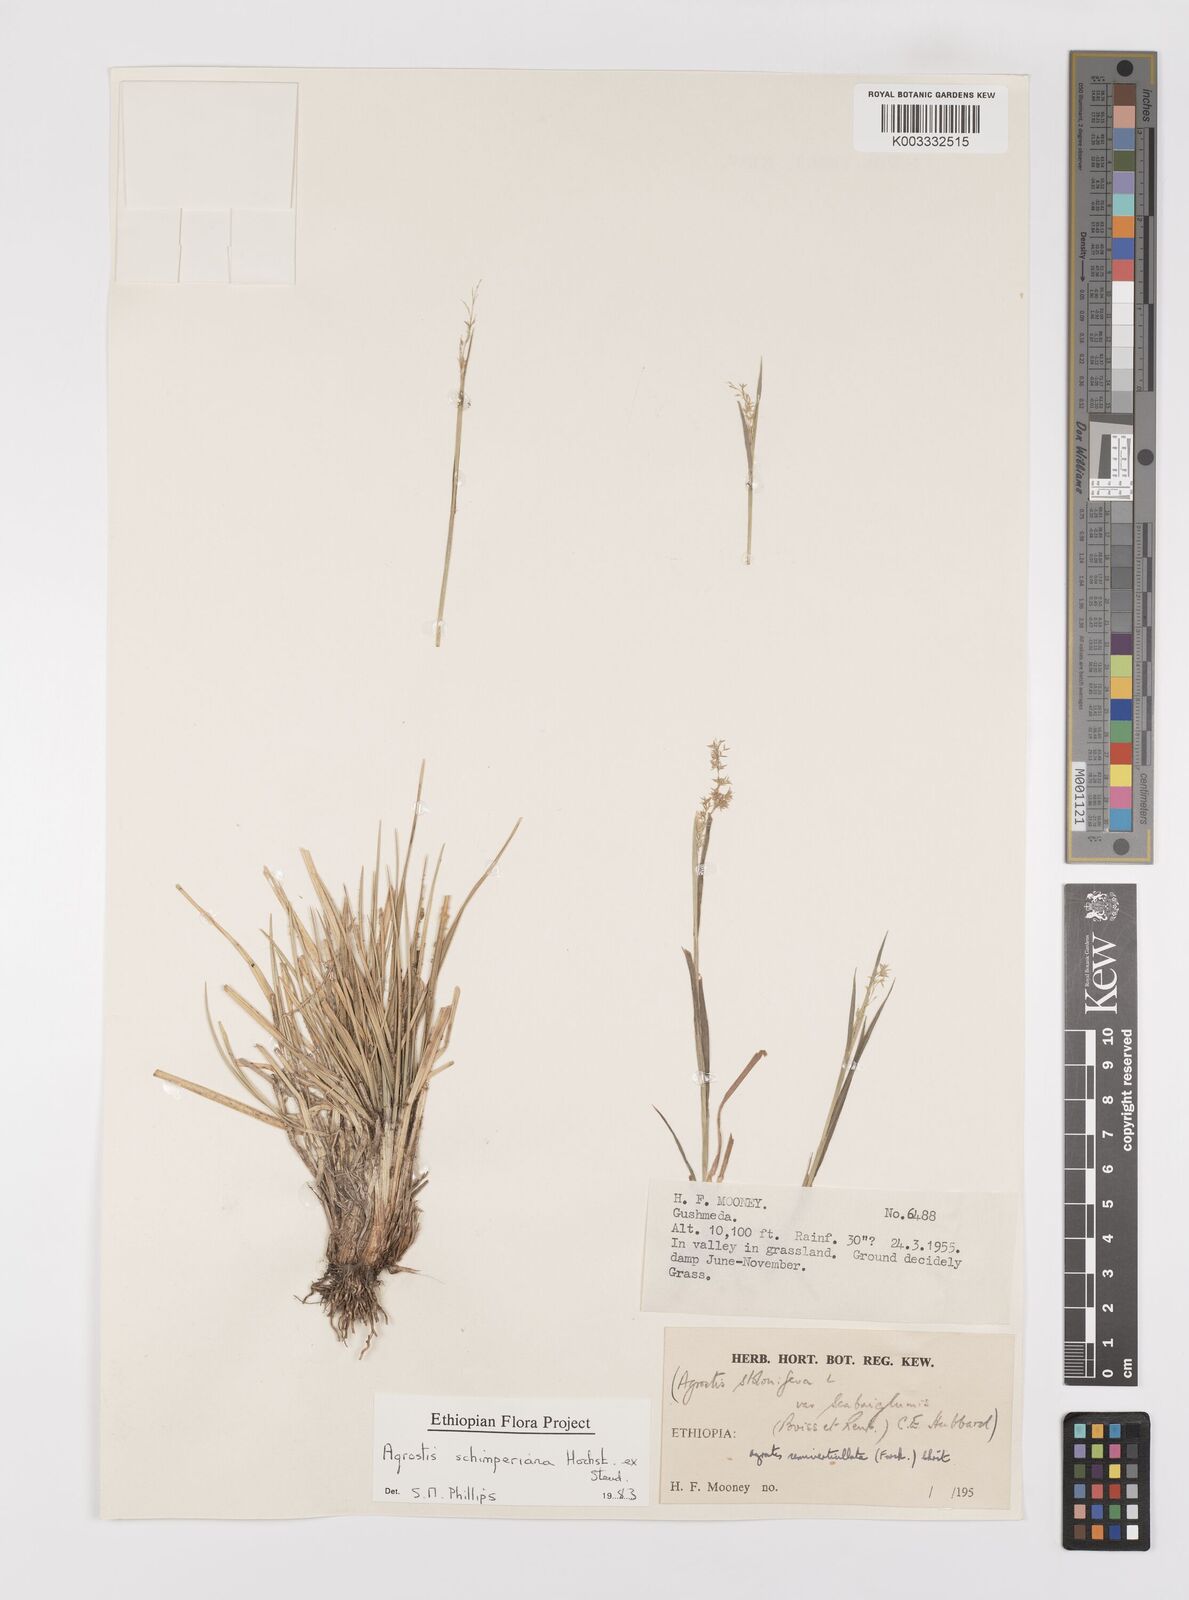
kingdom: Plantae
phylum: Tracheophyta
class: Liliopsida
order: Poales
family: Poaceae
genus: Polypogon
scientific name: Polypogon schimperianus
